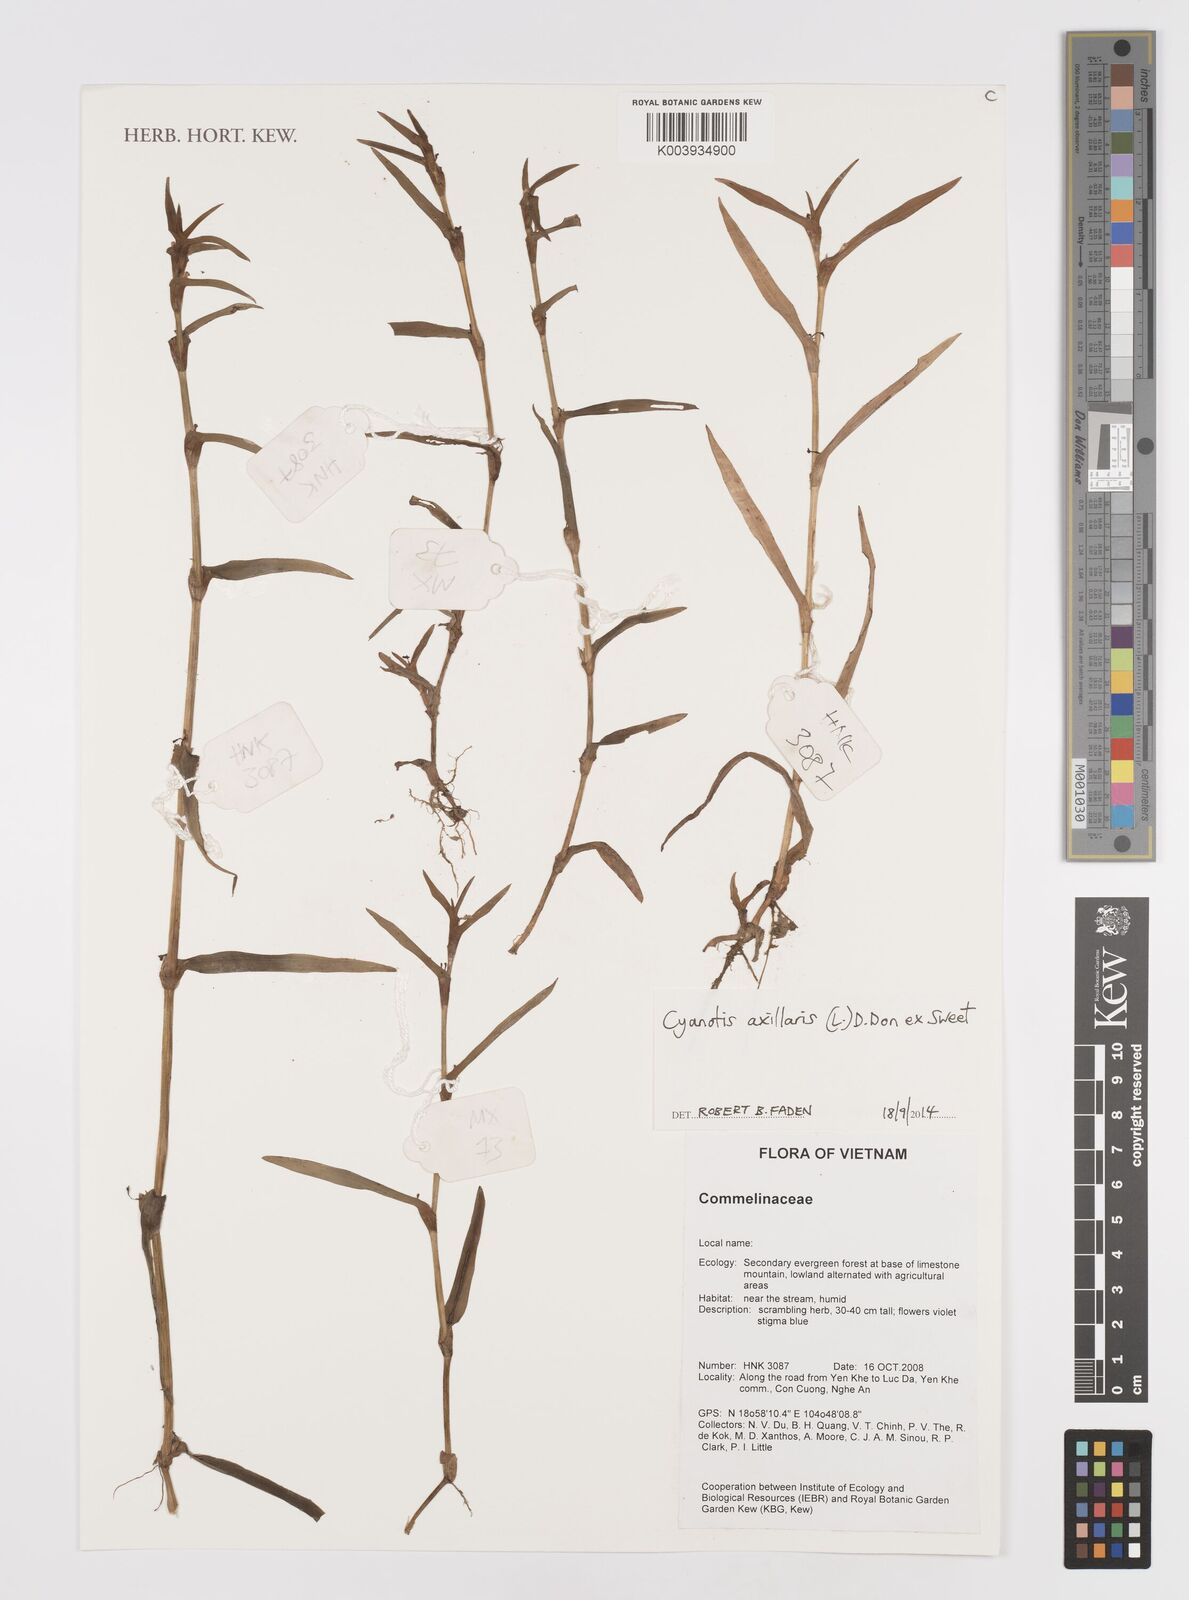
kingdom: Plantae
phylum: Tracheophyta
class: Liliopsida
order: Commelinales
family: Commelinaceae
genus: Cyanotis
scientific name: Cyanotis axillaris
